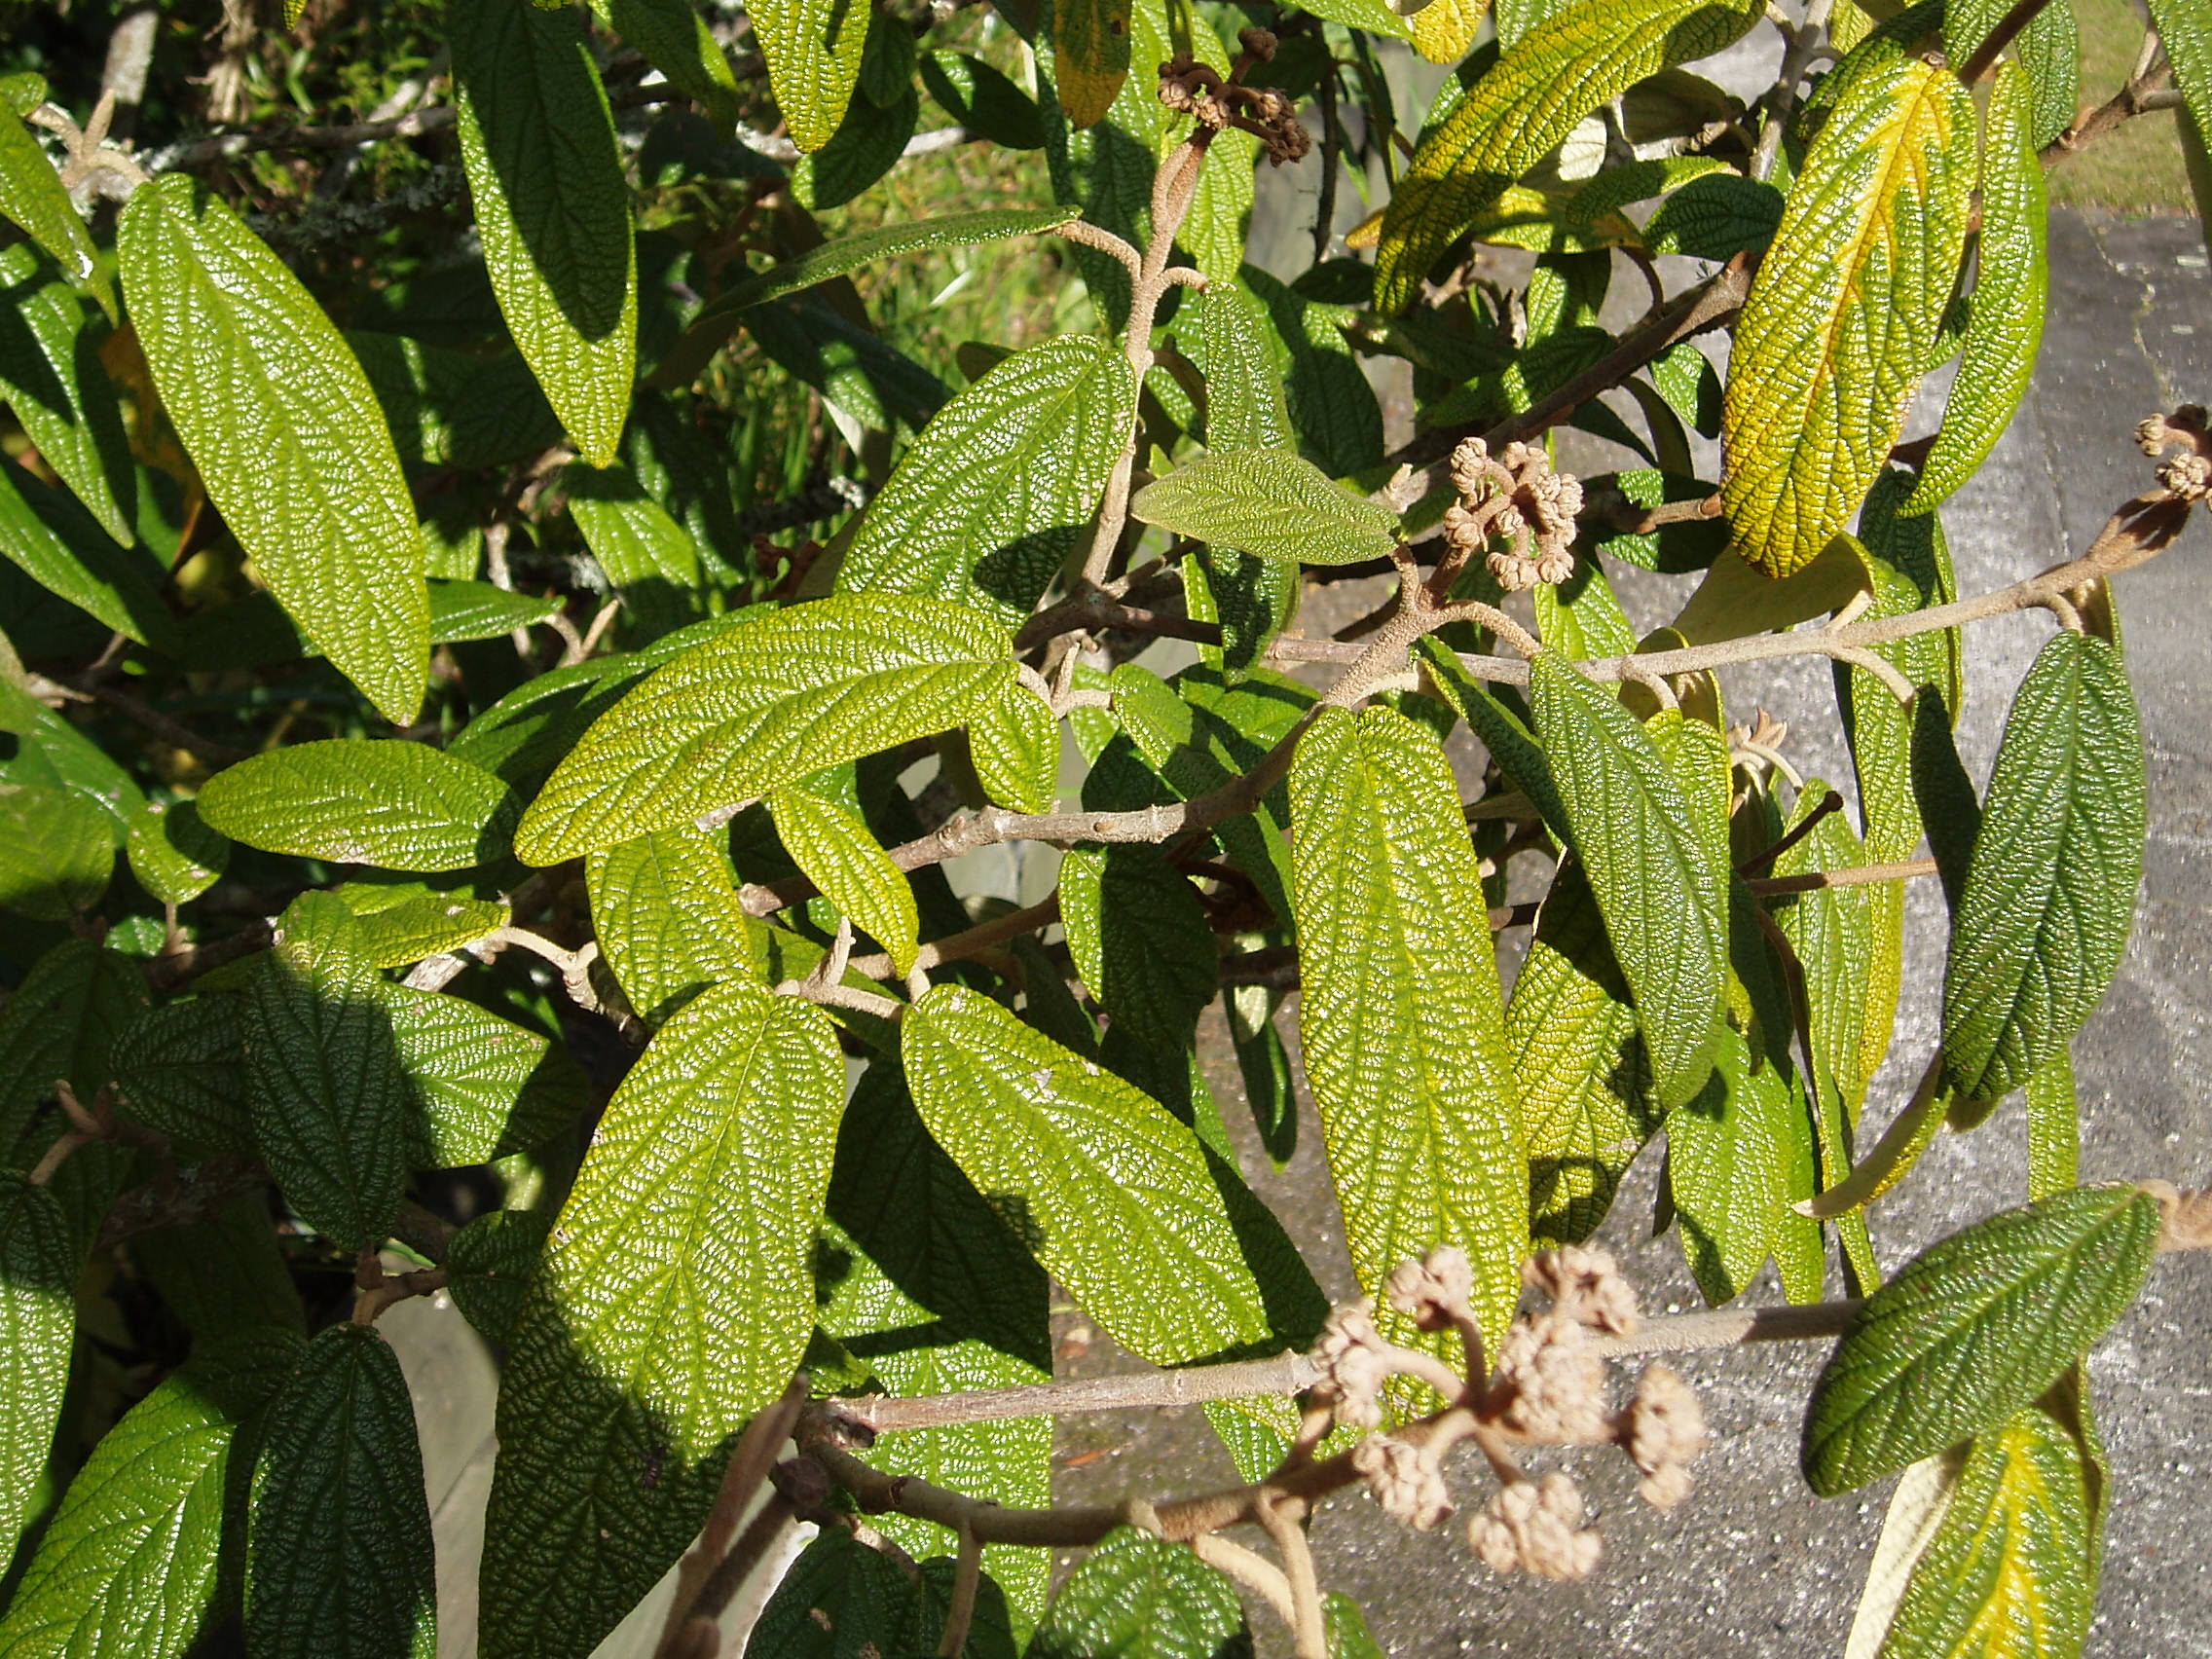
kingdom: Plantae
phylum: Tracheophyta
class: Magnoliopsida
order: Dipsacales
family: Viburnaceae
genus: Viburnum
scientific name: Viburnum rhytidophyllum
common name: Wrinkled viburnum
